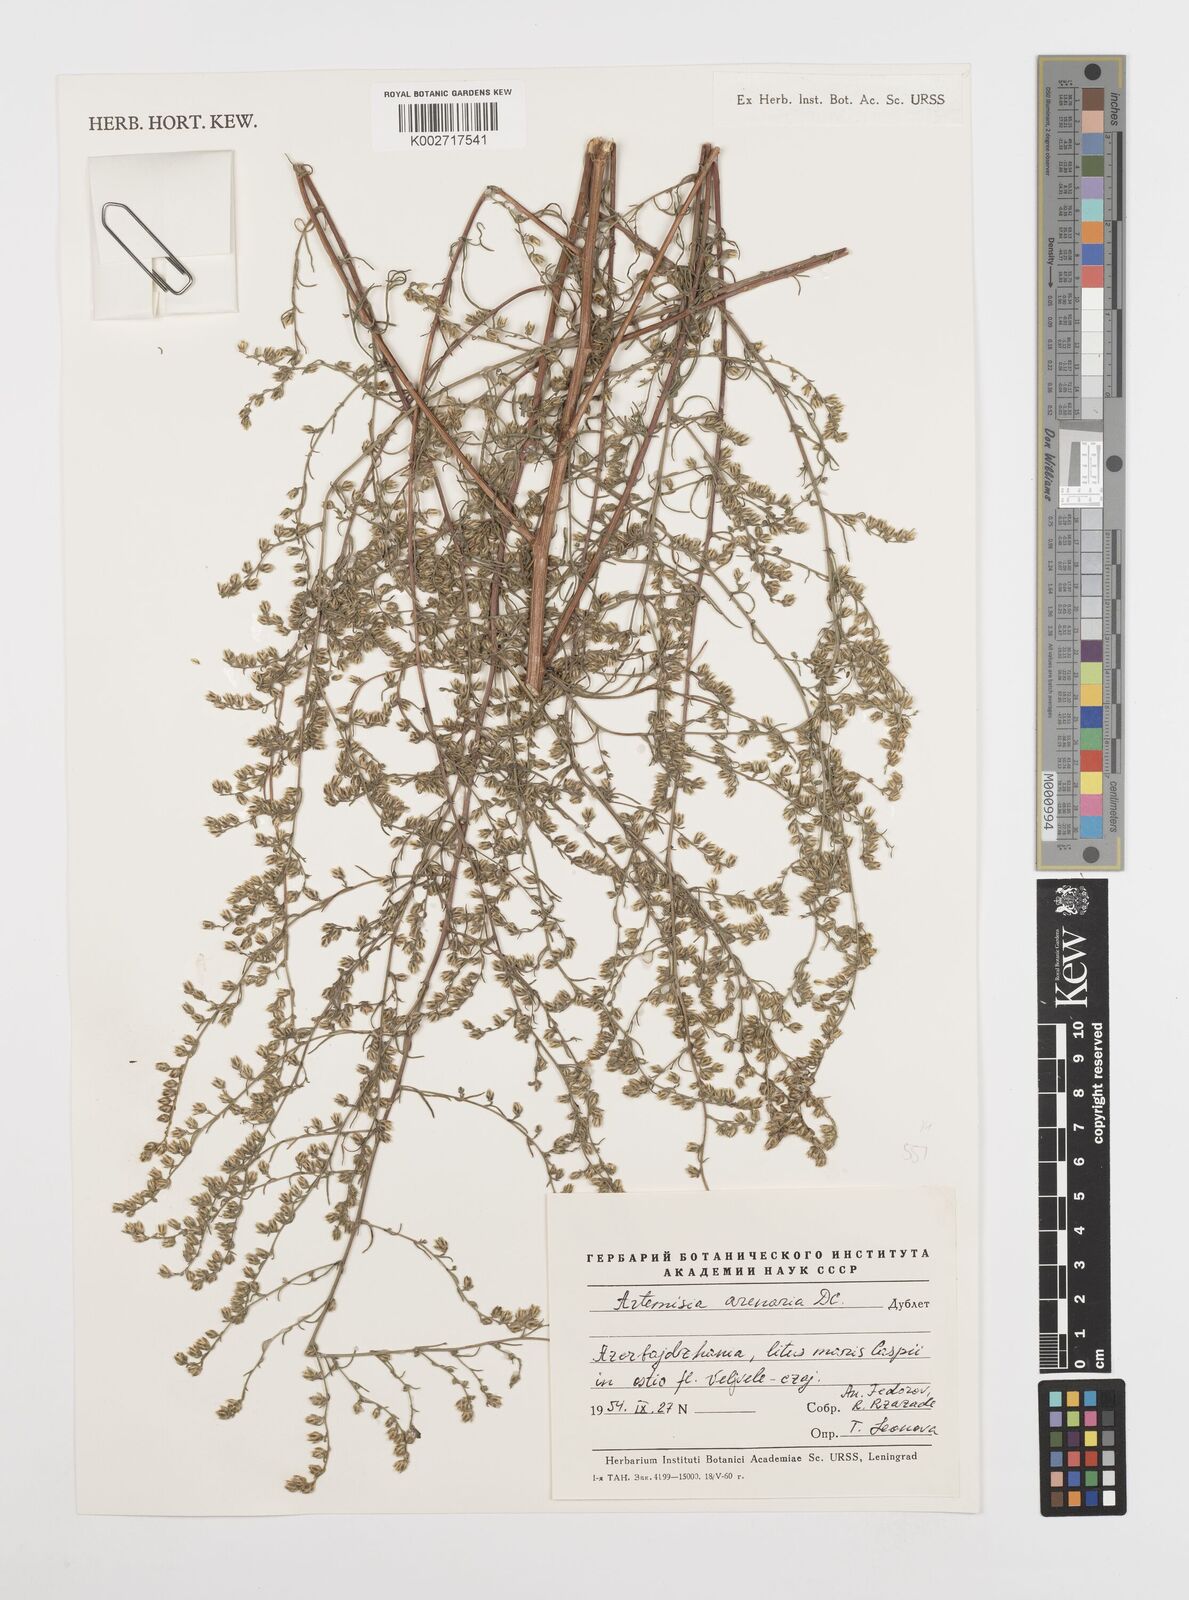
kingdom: Plantae
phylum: Tracheophyta
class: Magnoliopsida
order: Asterales
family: Asteraceae
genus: Artemisia
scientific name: Artemisia
